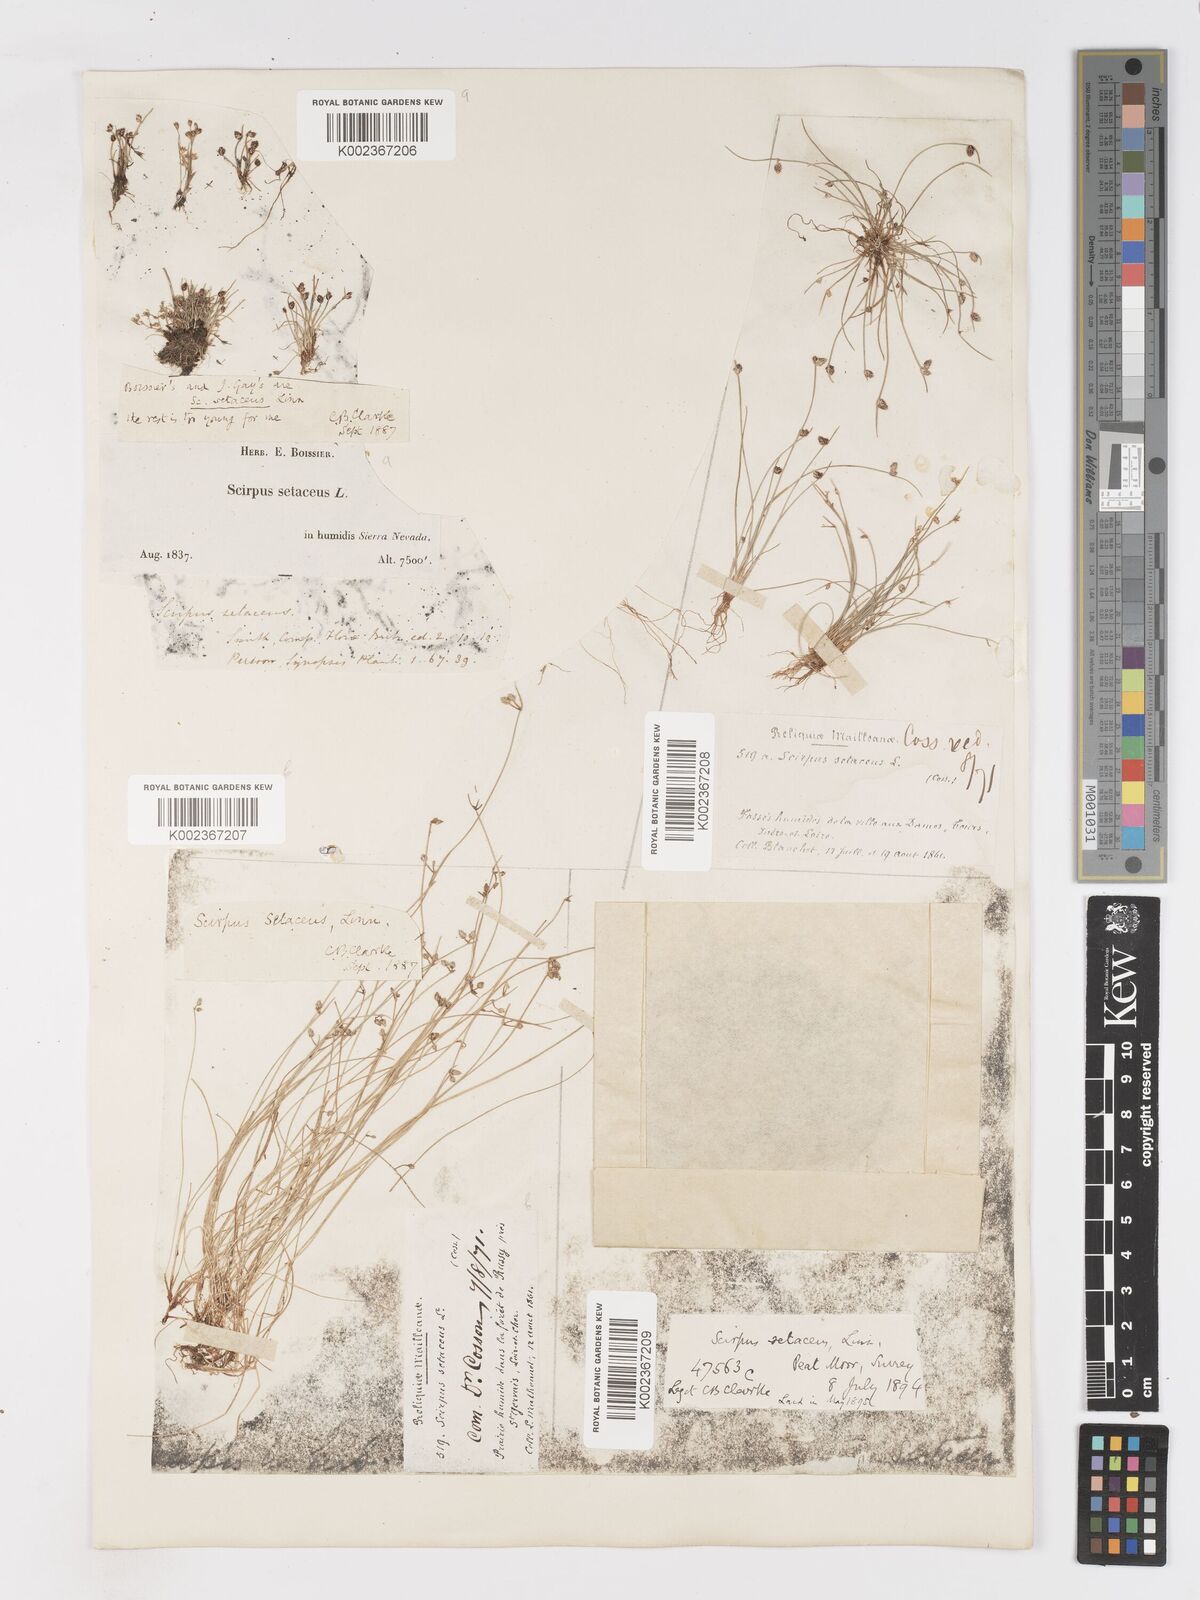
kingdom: Plantae
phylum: Tracheophyta
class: Liliopsida
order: Poales
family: Cyperaceae
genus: Isolepis
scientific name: Isolepis setacea
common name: Bristle club-rush
